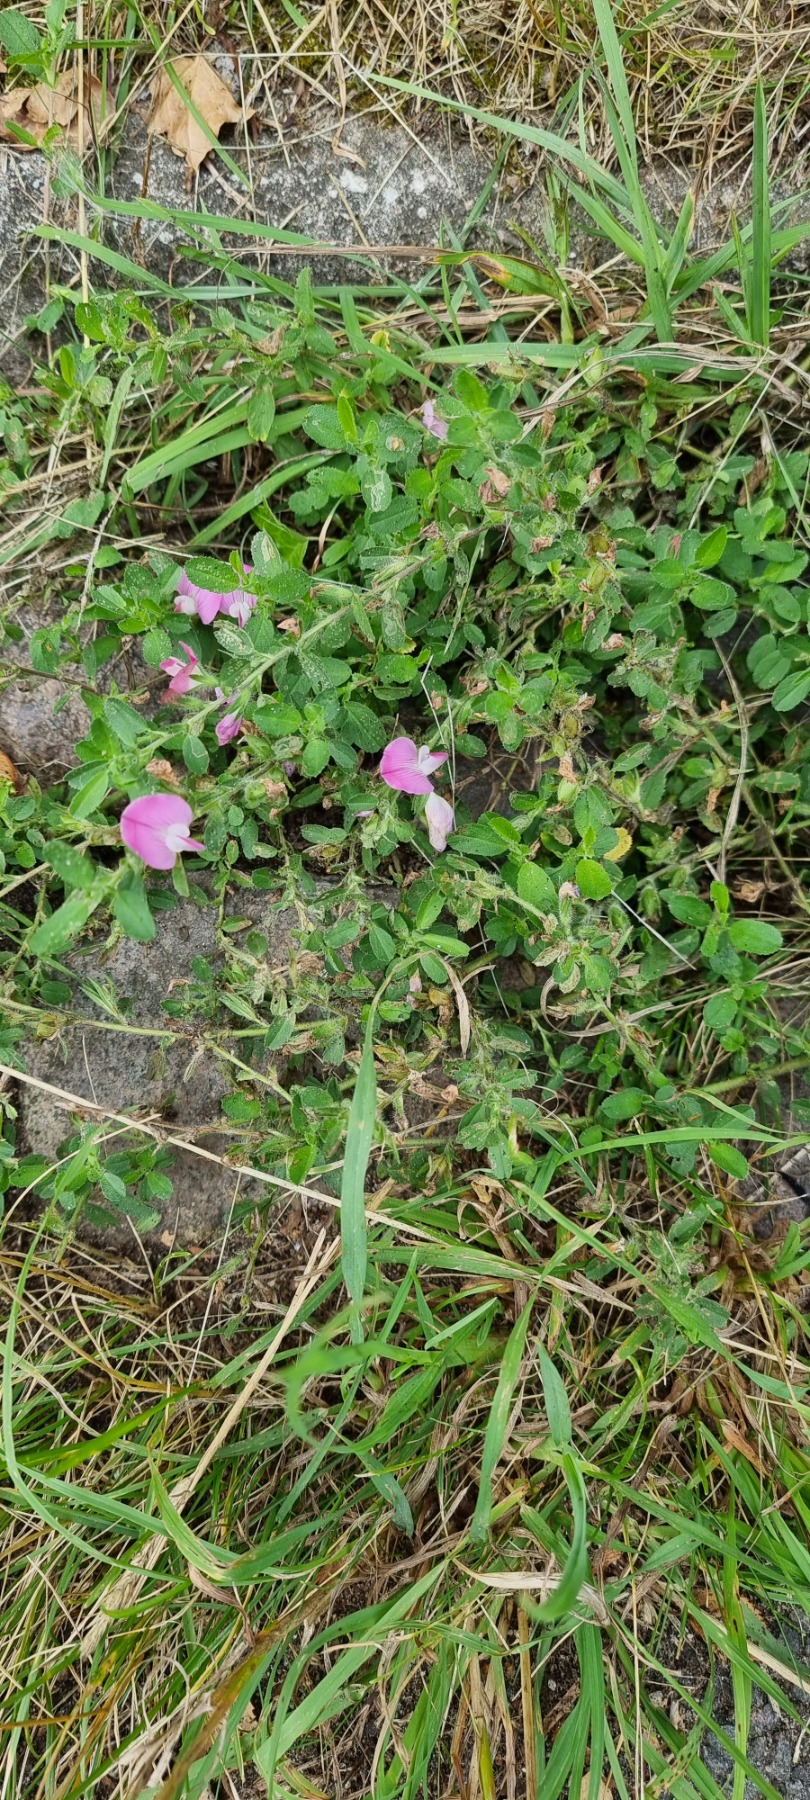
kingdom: Plantae
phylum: Tracheophyta
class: Magnoliopsida
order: Fabales
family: Fabaceae
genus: Ononis
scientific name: Ononis spinosa
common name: Mark-krageklo
